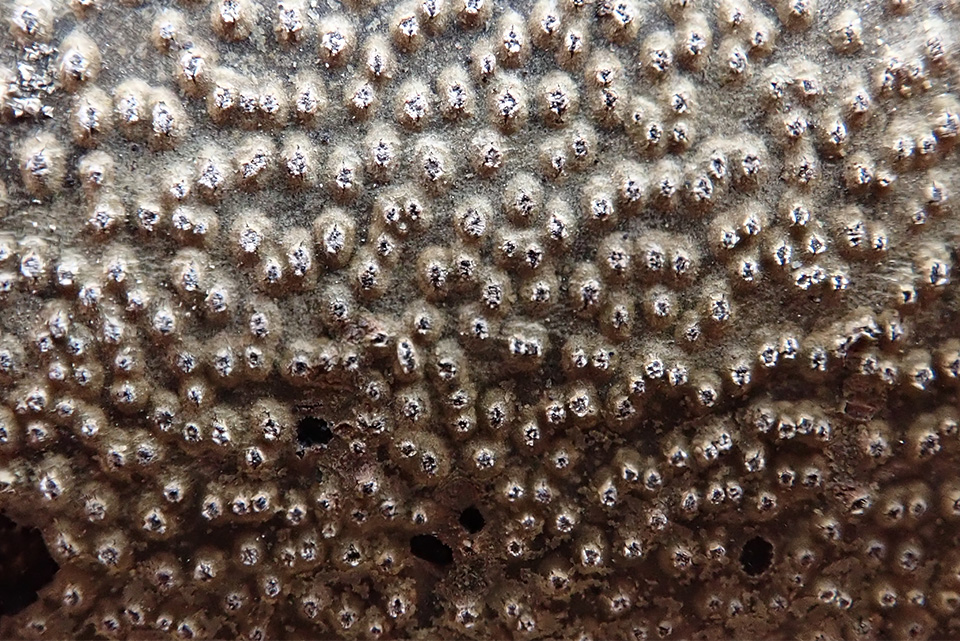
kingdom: Fungi
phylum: Ascomycota
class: Sordariomycetes
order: Diaporthales
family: Valsaceae
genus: Cytospora
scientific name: Cytospora nivea
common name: hvidskivet kulknippe
